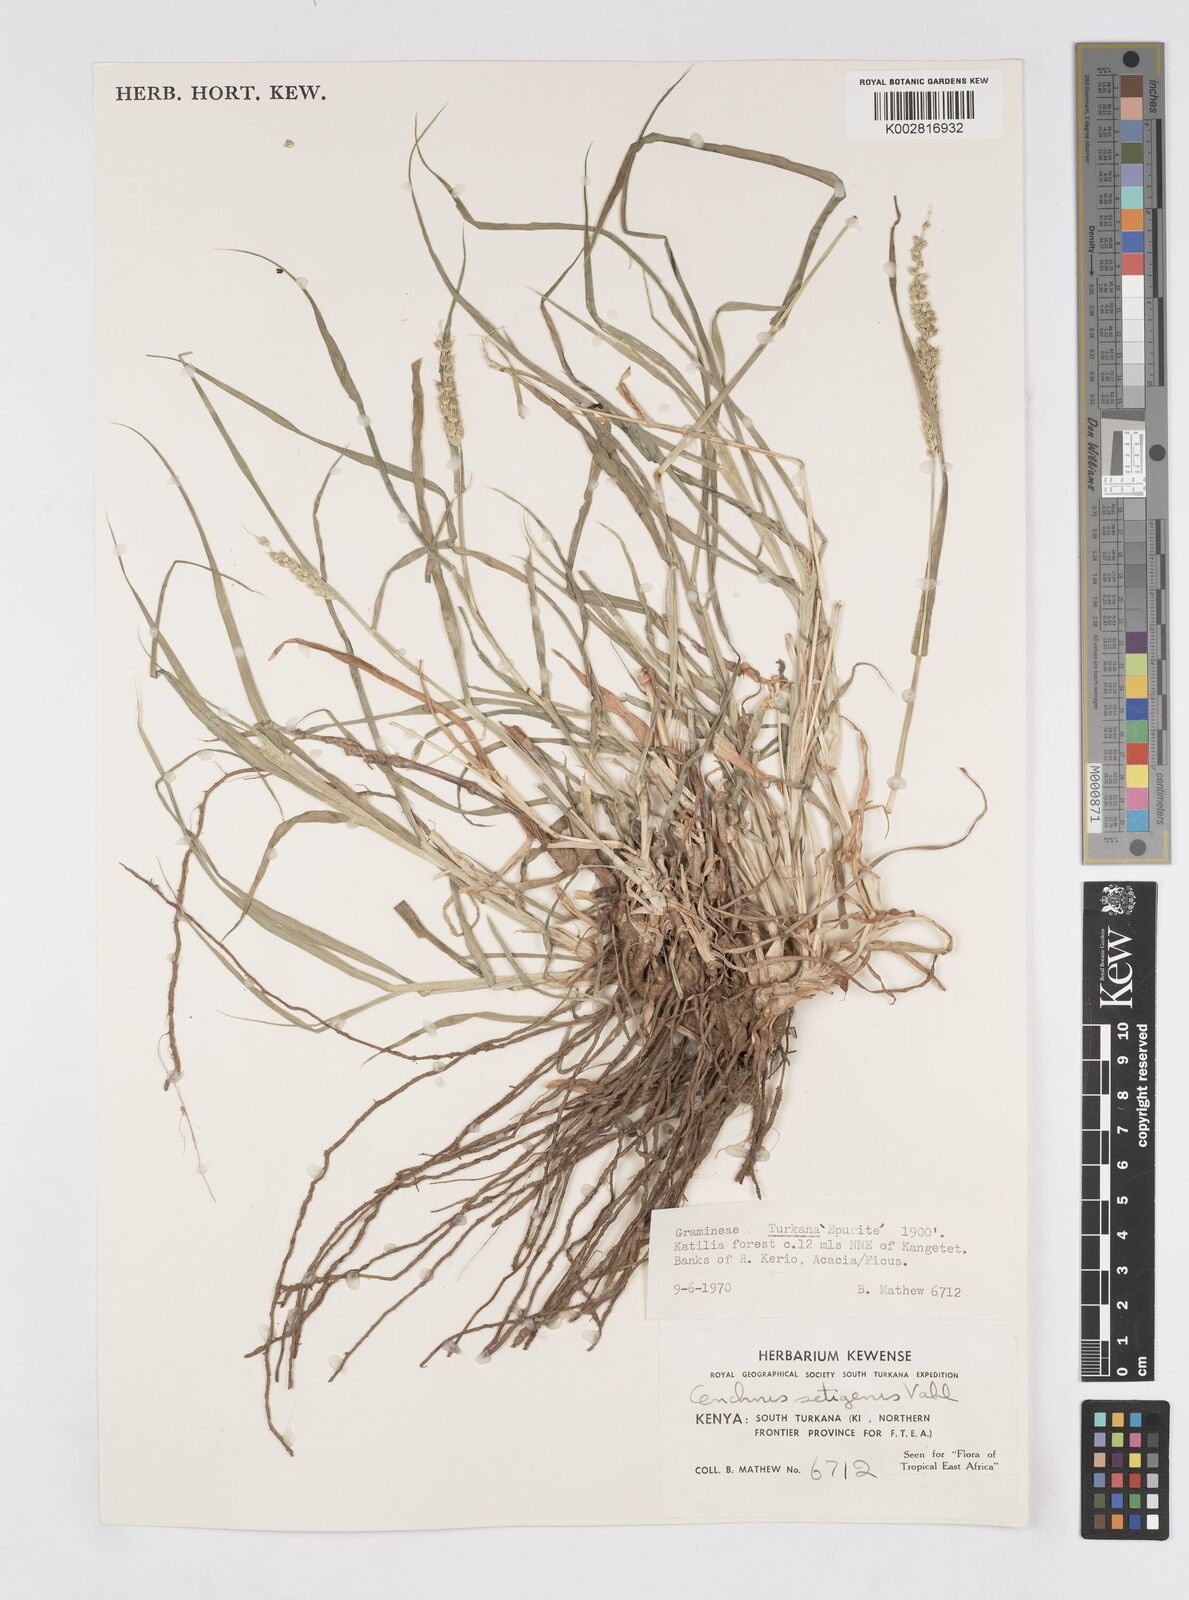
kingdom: Plantae
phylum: Tracheophyta
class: Liliopsida
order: Poales
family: Poaceae
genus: Cenchrus
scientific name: Cenchrus setigerus
